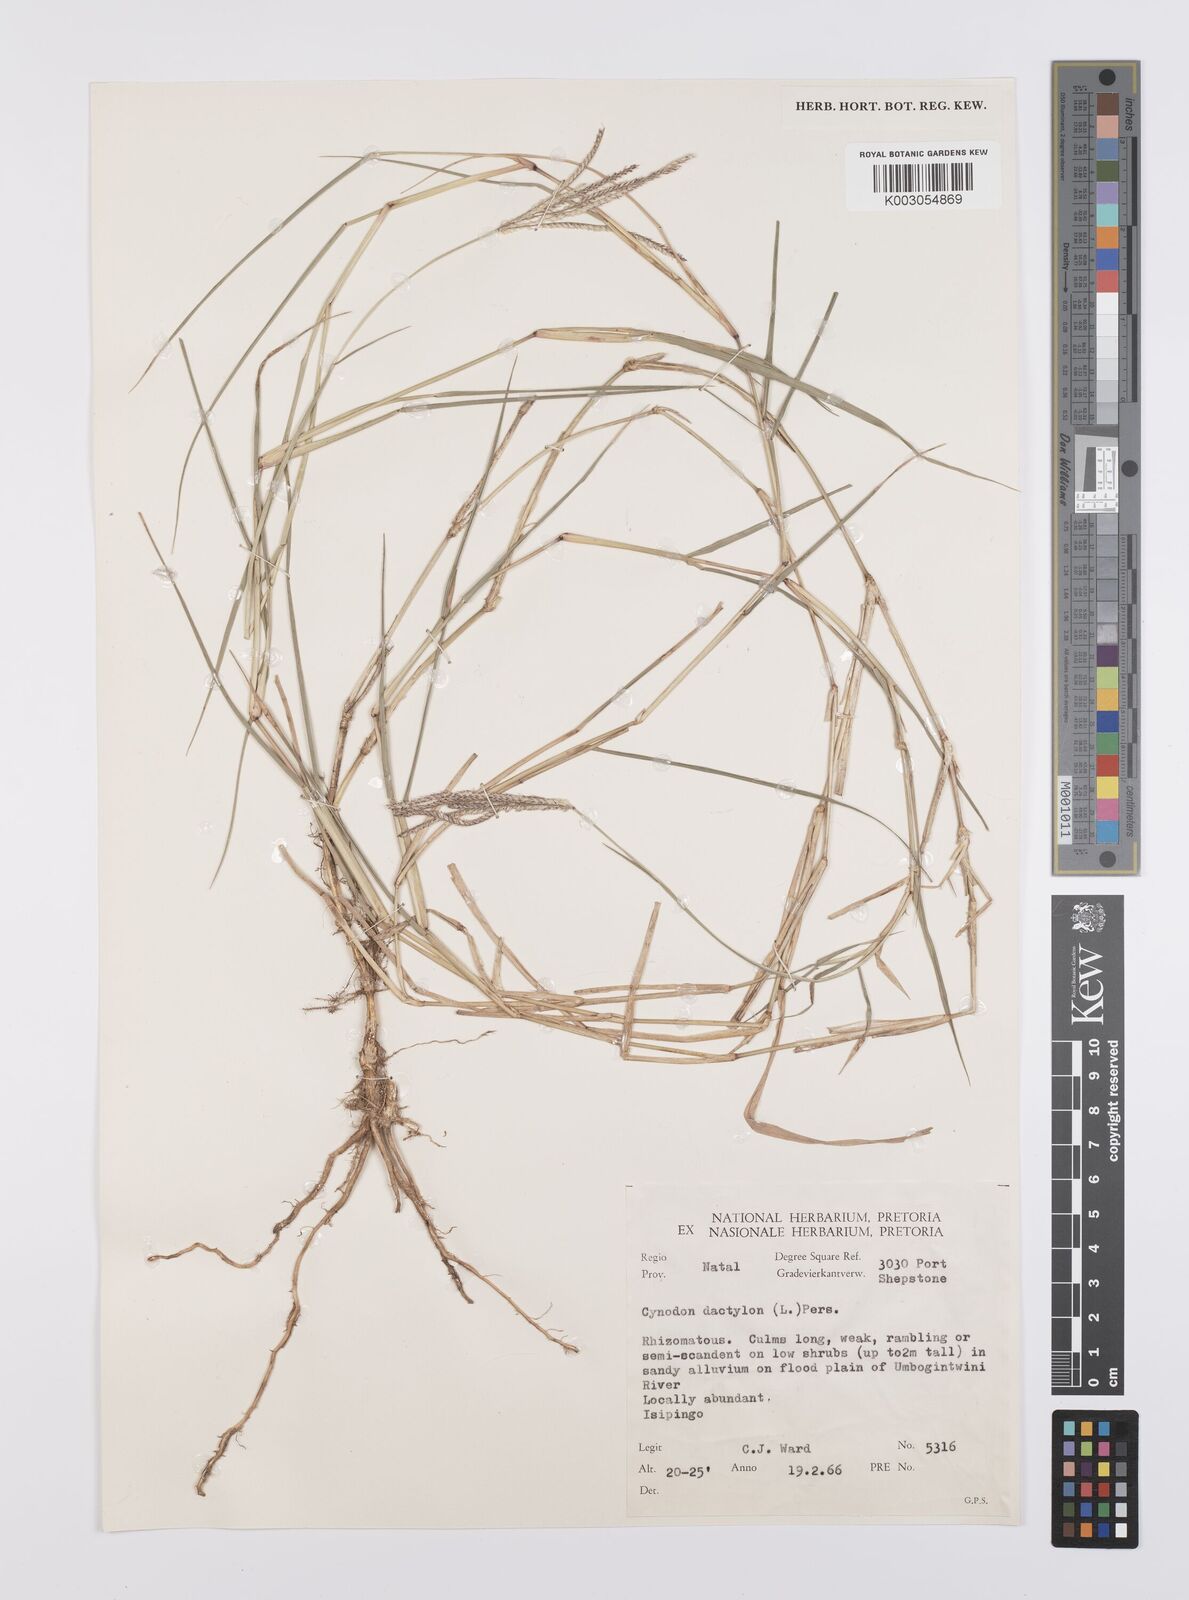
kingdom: Plantae
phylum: Tracheophyta
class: Liliopsida
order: Poales
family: Poaceae
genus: Cynodon
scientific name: Cynodon dactylon
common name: Bermuda grass
